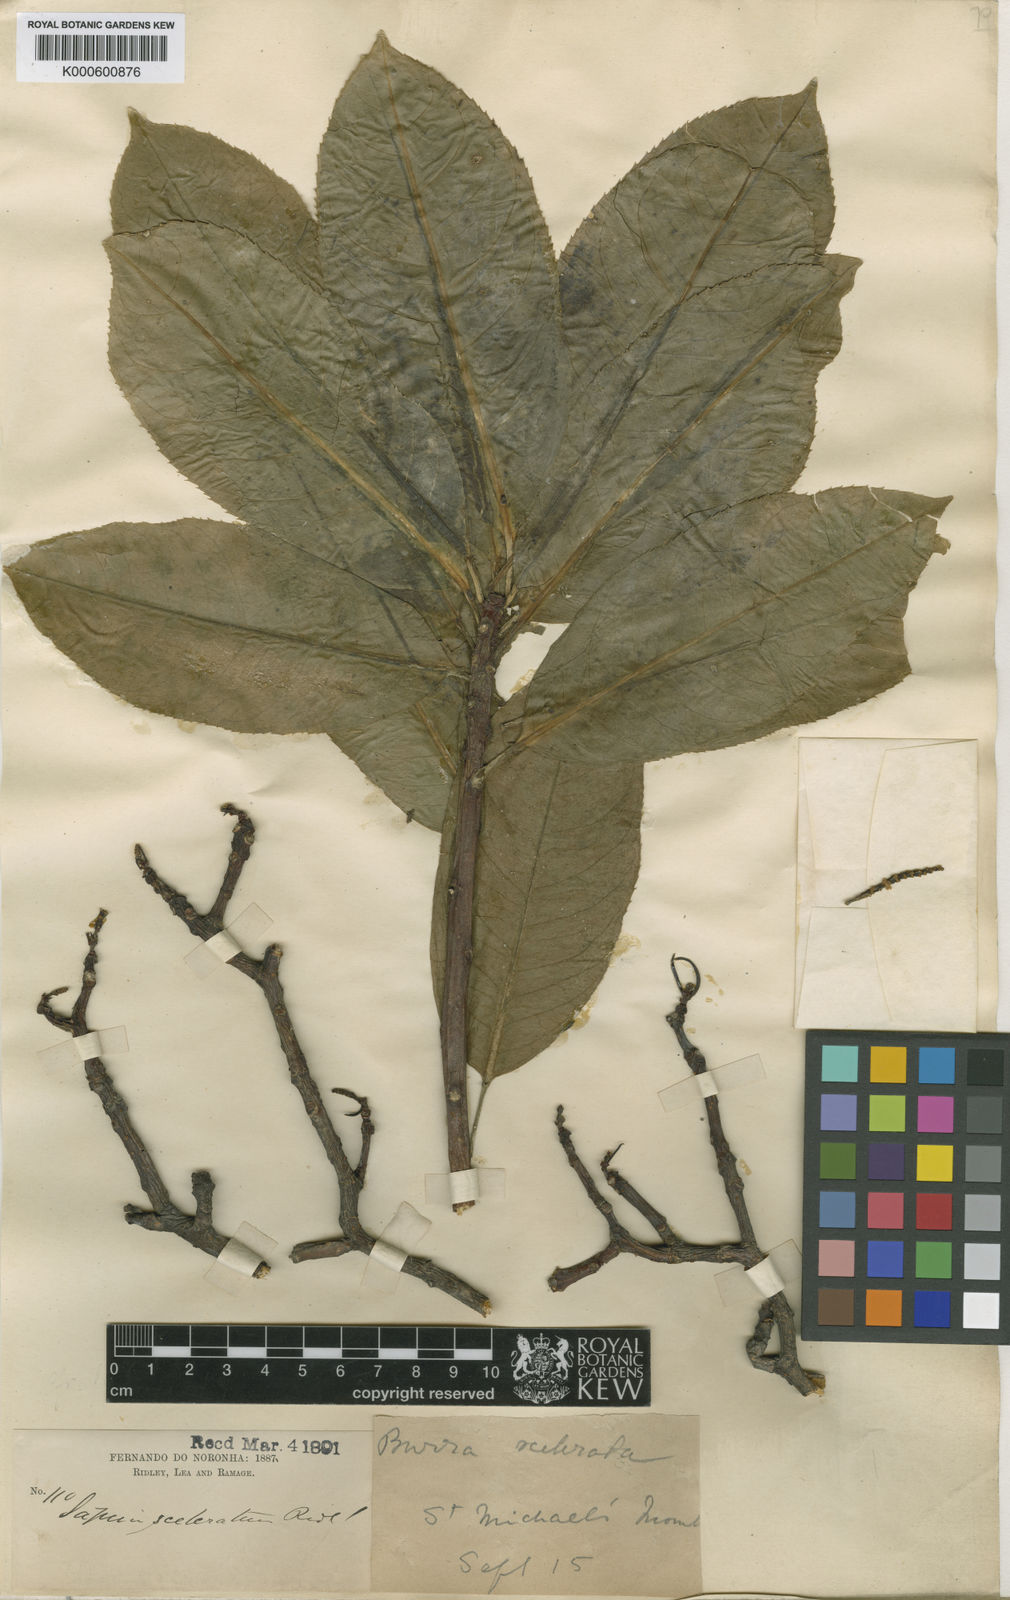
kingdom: Plantae
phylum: Tracheophyta
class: Magnoliopsida
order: Malpighiales
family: Euphorbiaceae
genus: Sapium
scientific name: Sapium
